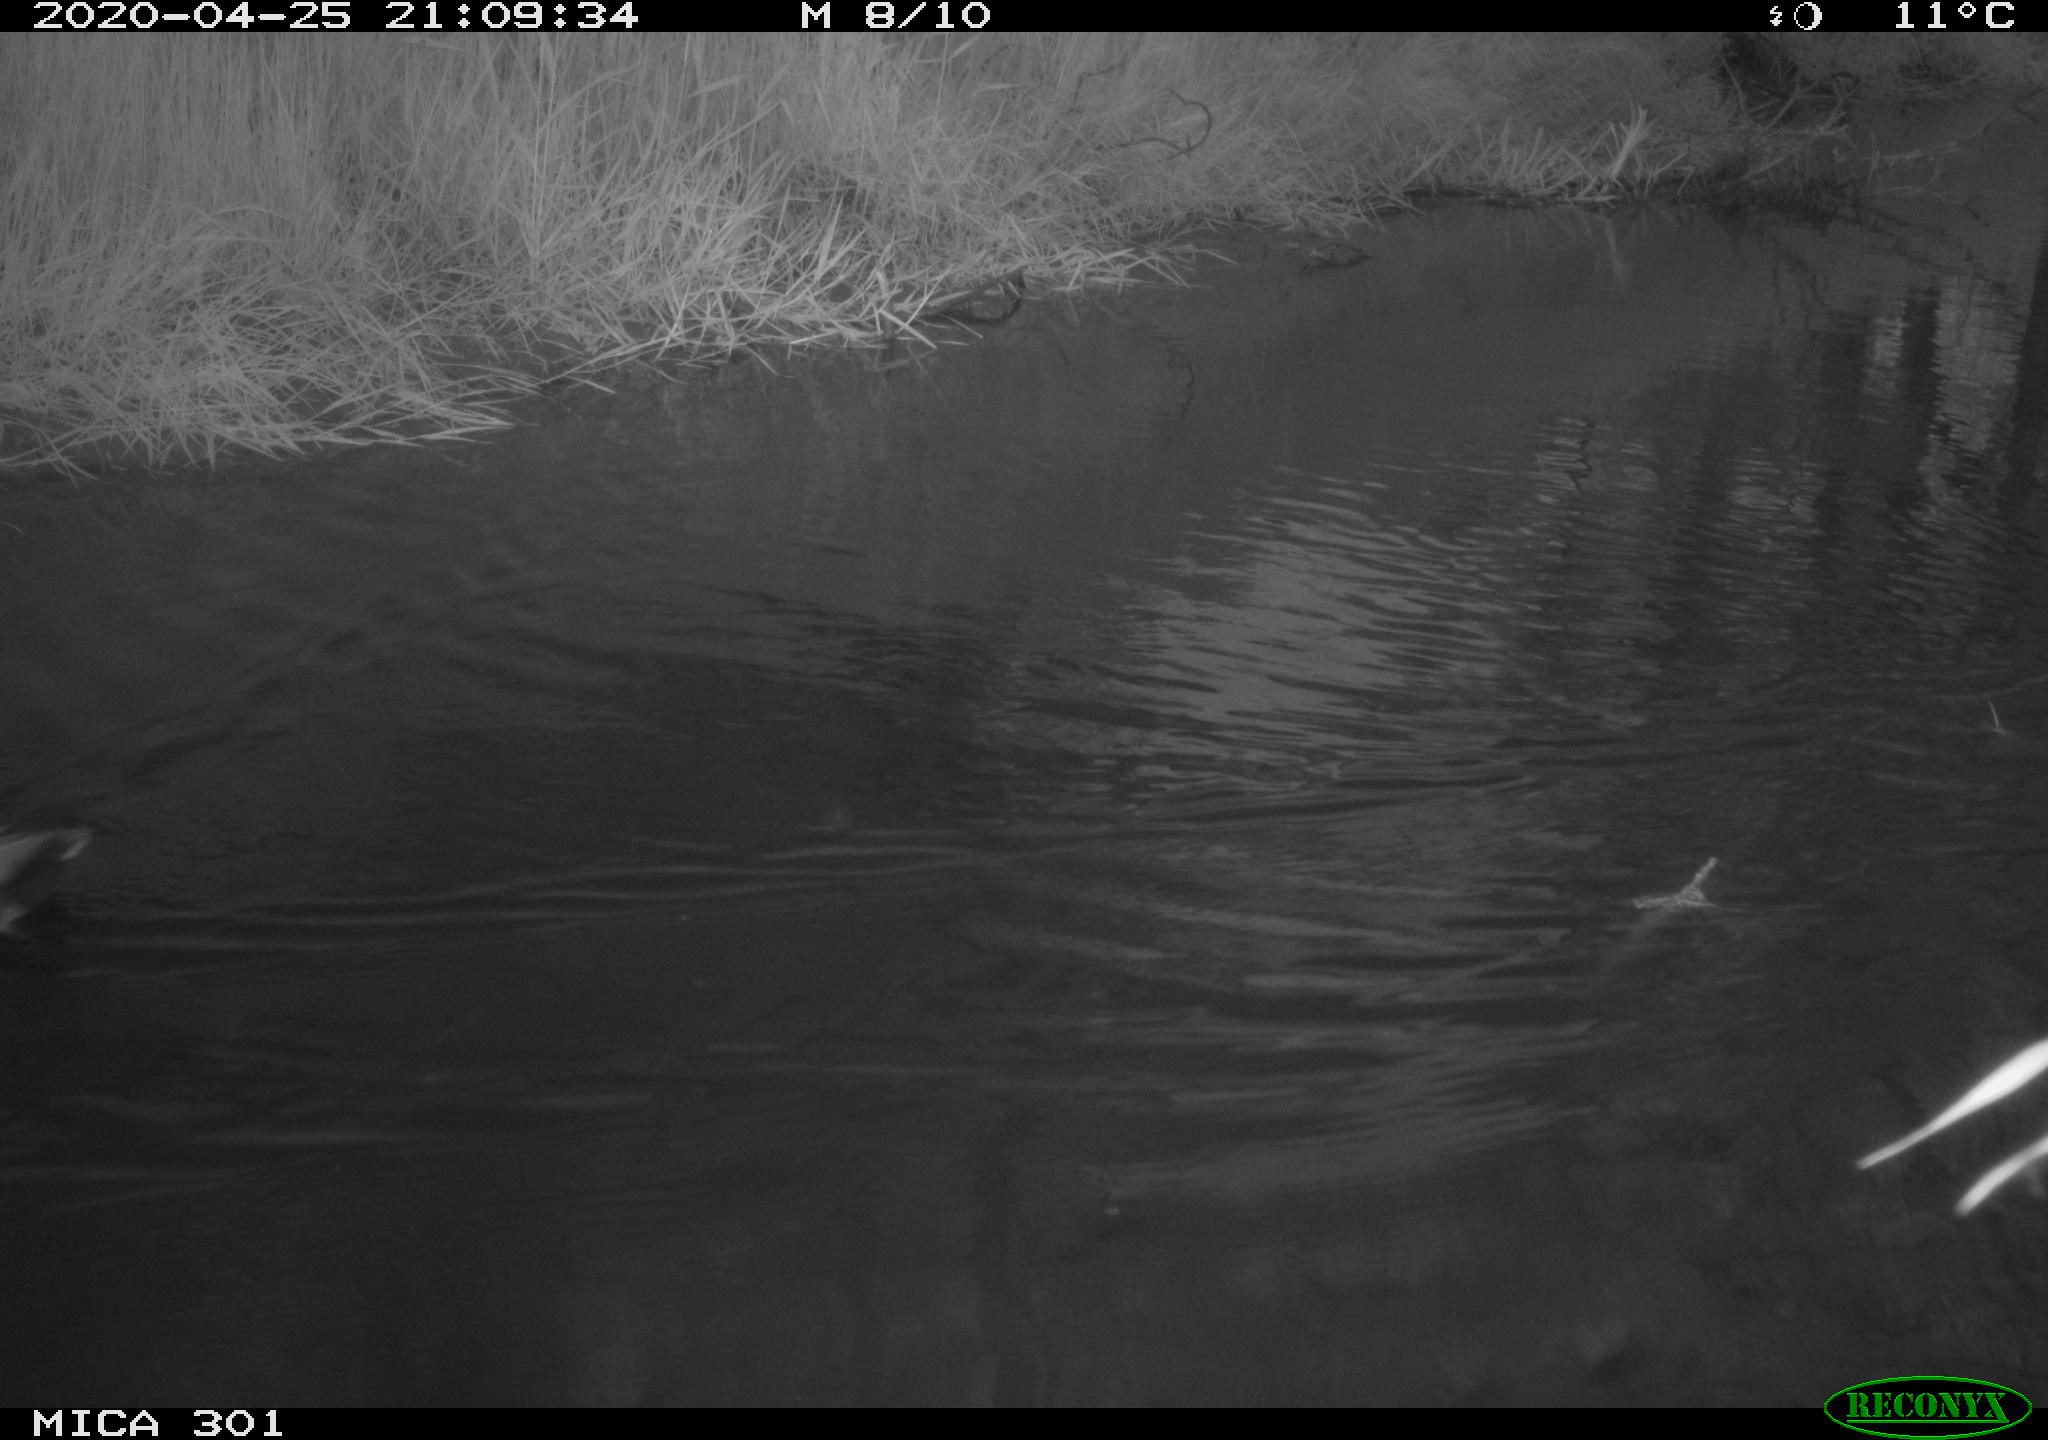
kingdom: Animalia
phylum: Chordata
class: Aves
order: Anseriformes
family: Anatidae
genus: Mareca
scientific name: Mareca strepera
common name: Gadwall
